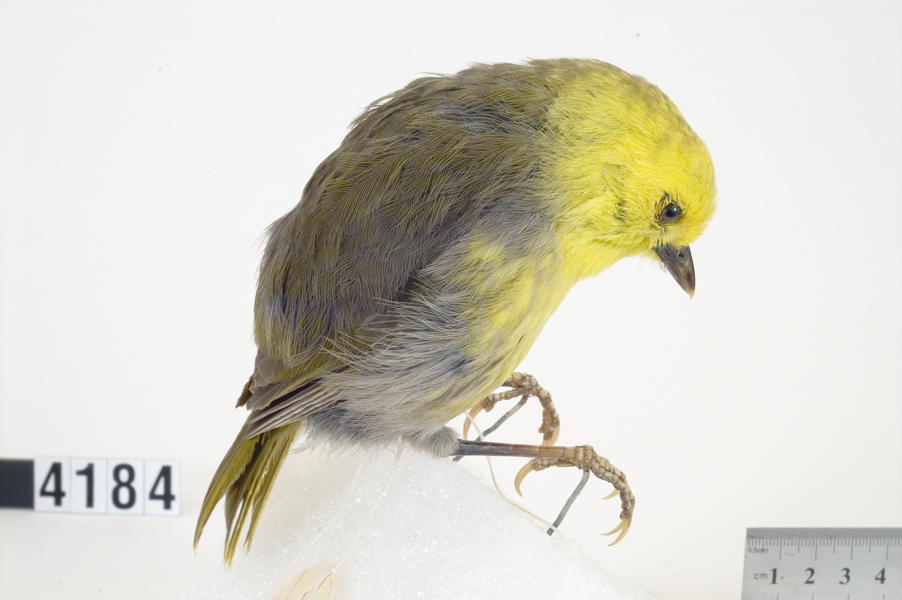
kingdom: Animalia
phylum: Chordata
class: Aves
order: Passeriformes
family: Acanthizidae
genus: Mohoua
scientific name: Mohoua ochrocephala
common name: Yellowhead
